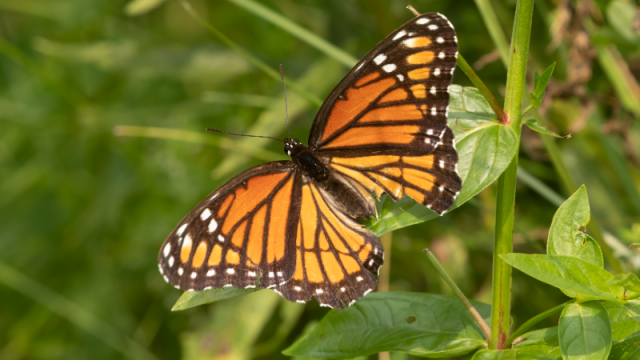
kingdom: Animalia
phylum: Arthropoda
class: Insecta
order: Lepidoptera
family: Nymphalidae
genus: Limenitis
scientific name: Limenitis archippus
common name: Viceroy
